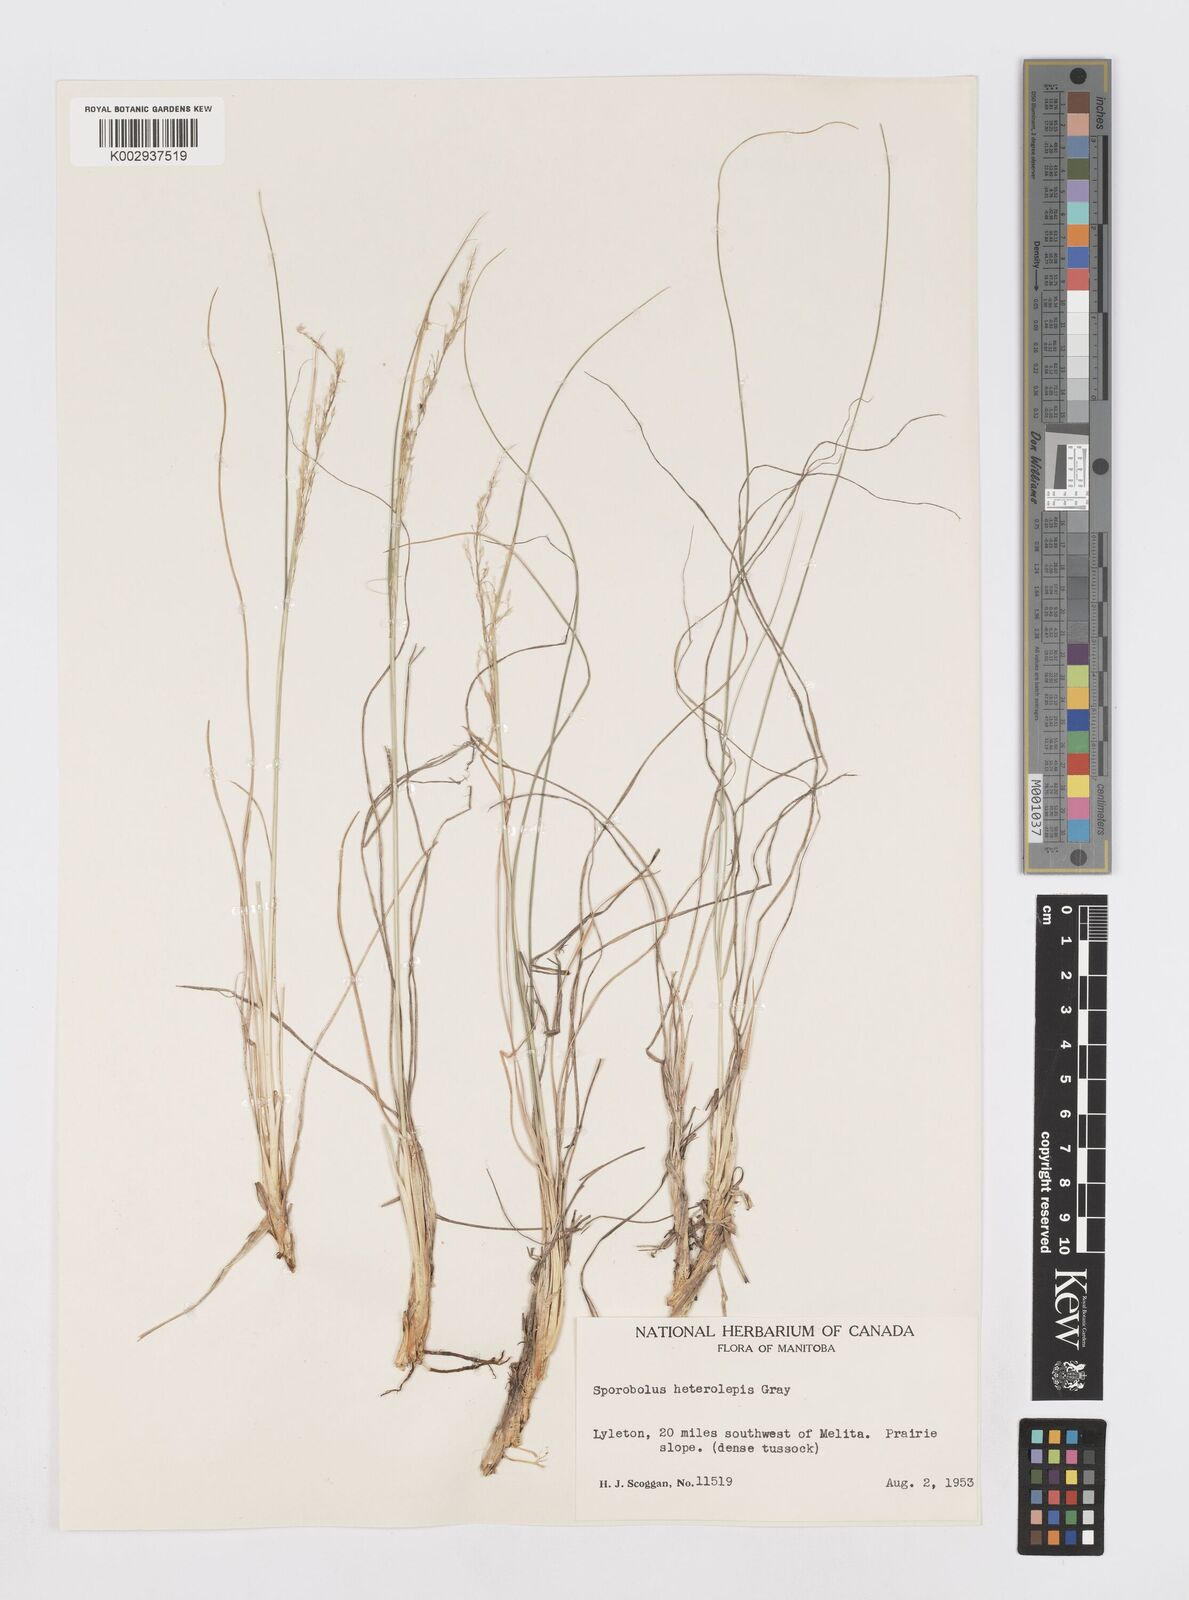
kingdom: Plantae
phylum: Tracheophyta
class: Liliopsida
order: Poales
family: Poaceae
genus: Sporobolus
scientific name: Sporobolus heterolepis
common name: Prairie dropseed
